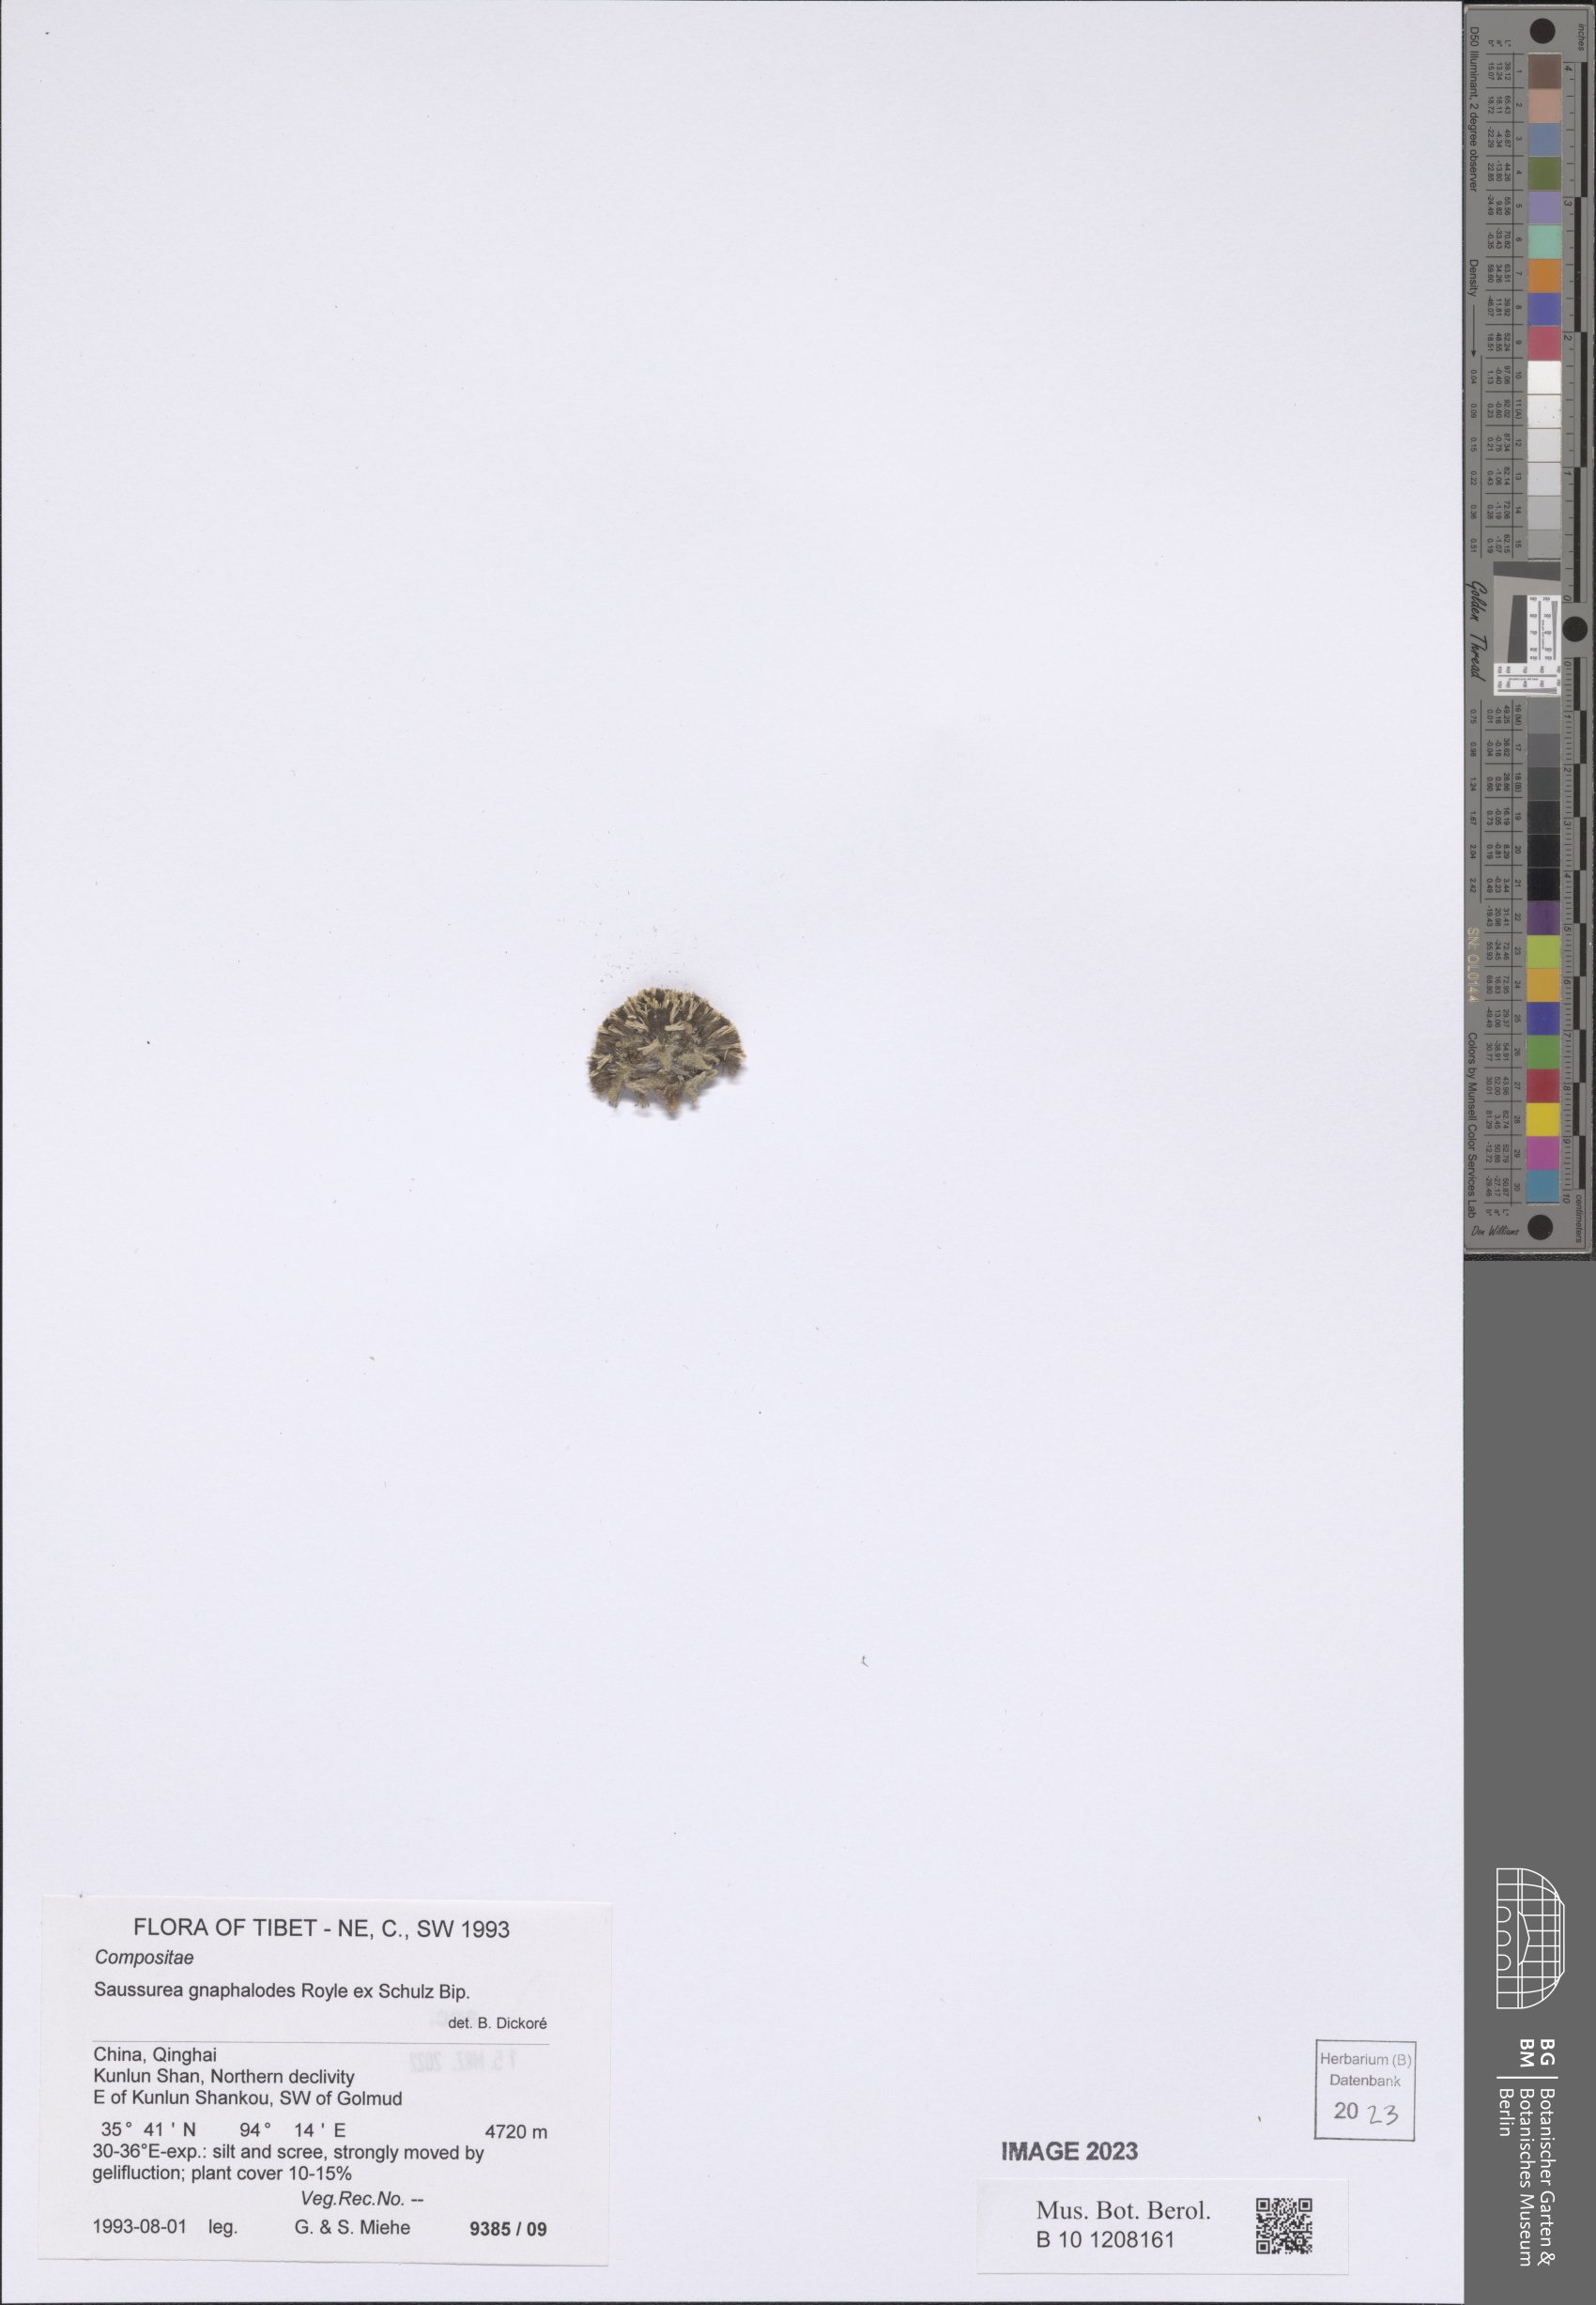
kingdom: Plantae
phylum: Tracheophyta
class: Magnoliopsida
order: Asterales
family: Asteraceae
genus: Saussurea
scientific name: Saussurea gnaphalodes
